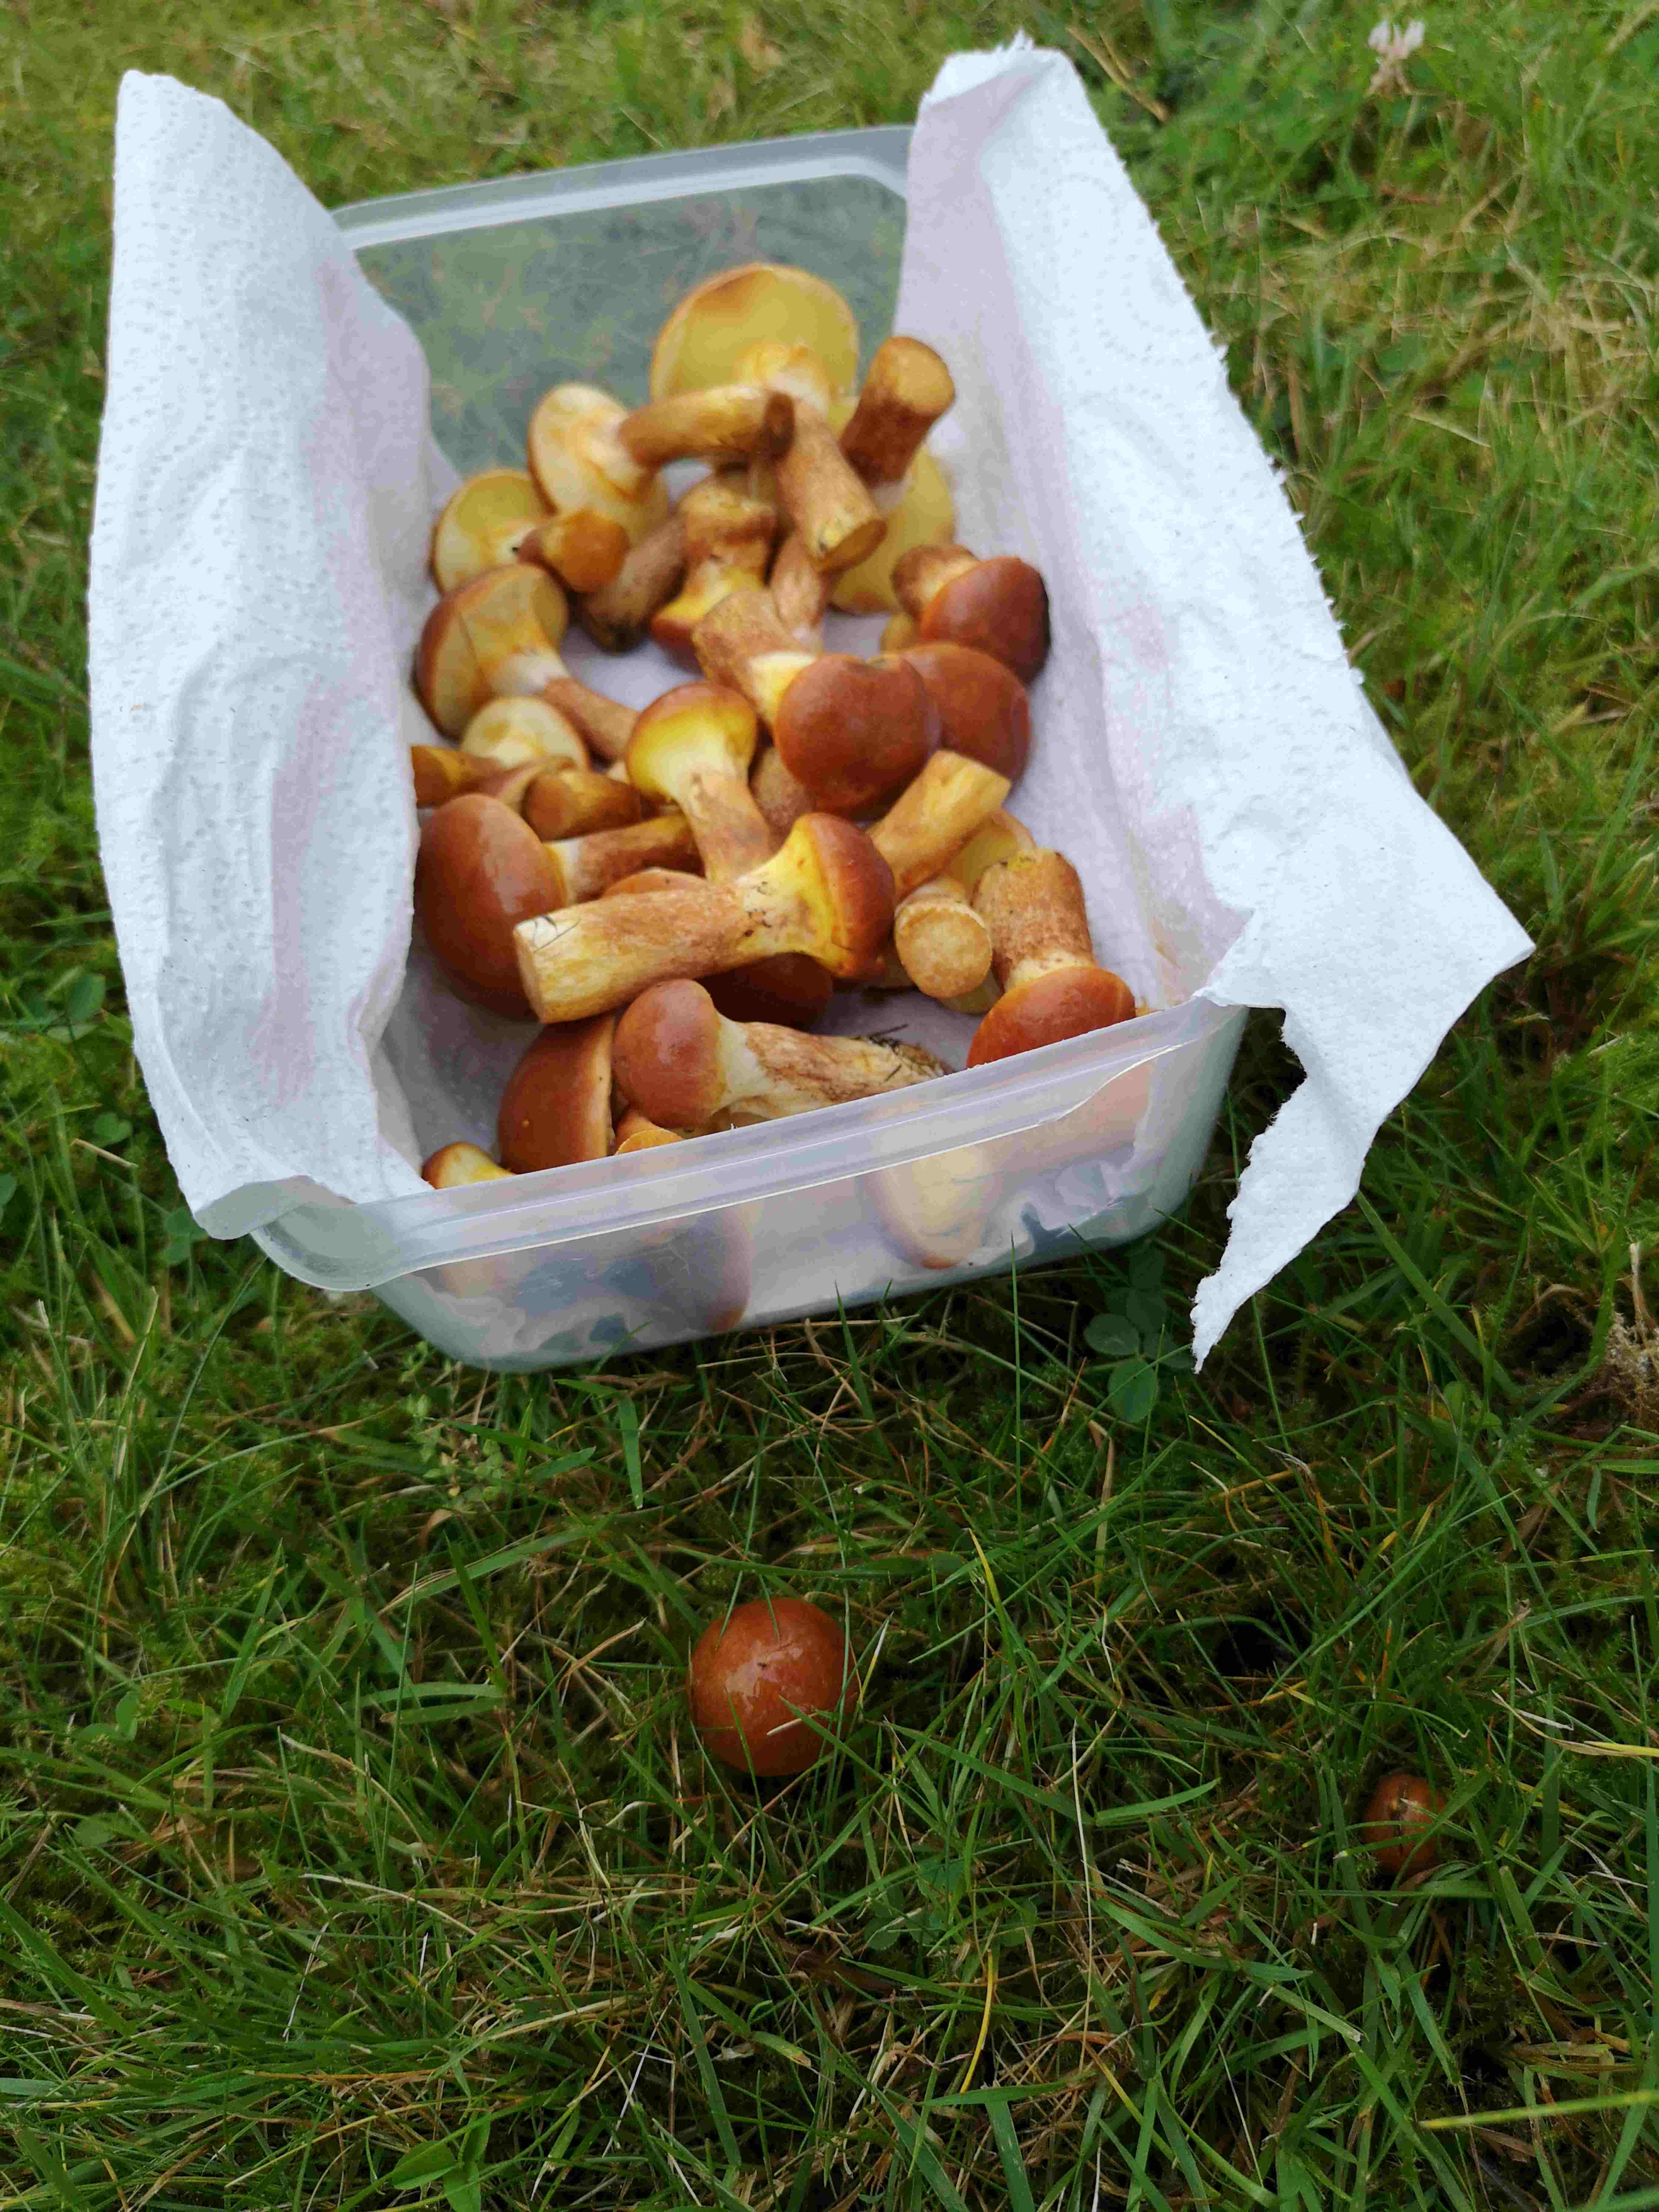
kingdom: Fungi
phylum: Basidiomycota
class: Agaricomycetes
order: Boletales
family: Suillaceae
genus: Suillus
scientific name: Suillus grevillei
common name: lærke-slimrørhat
